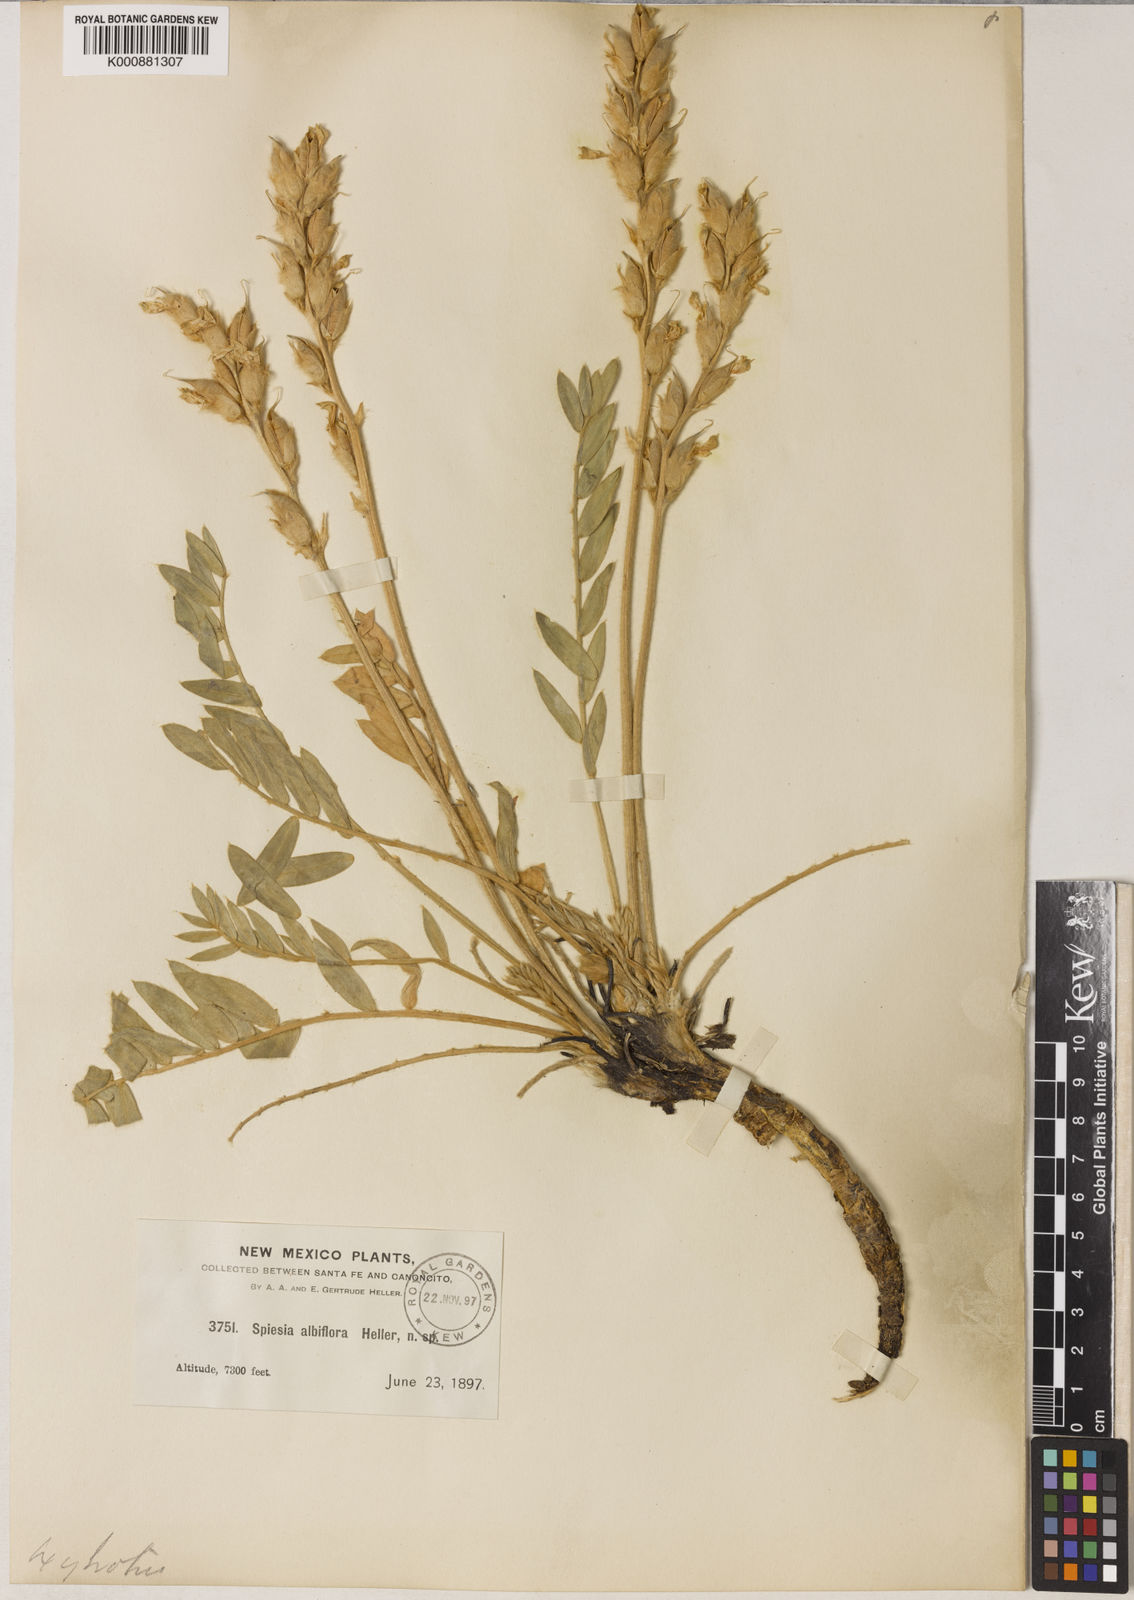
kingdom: Plantae
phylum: Tracheophyta
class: Magnoliopsida
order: Fabales
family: Fabaceae
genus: Oxytropis
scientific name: Oxytropis albiflora
